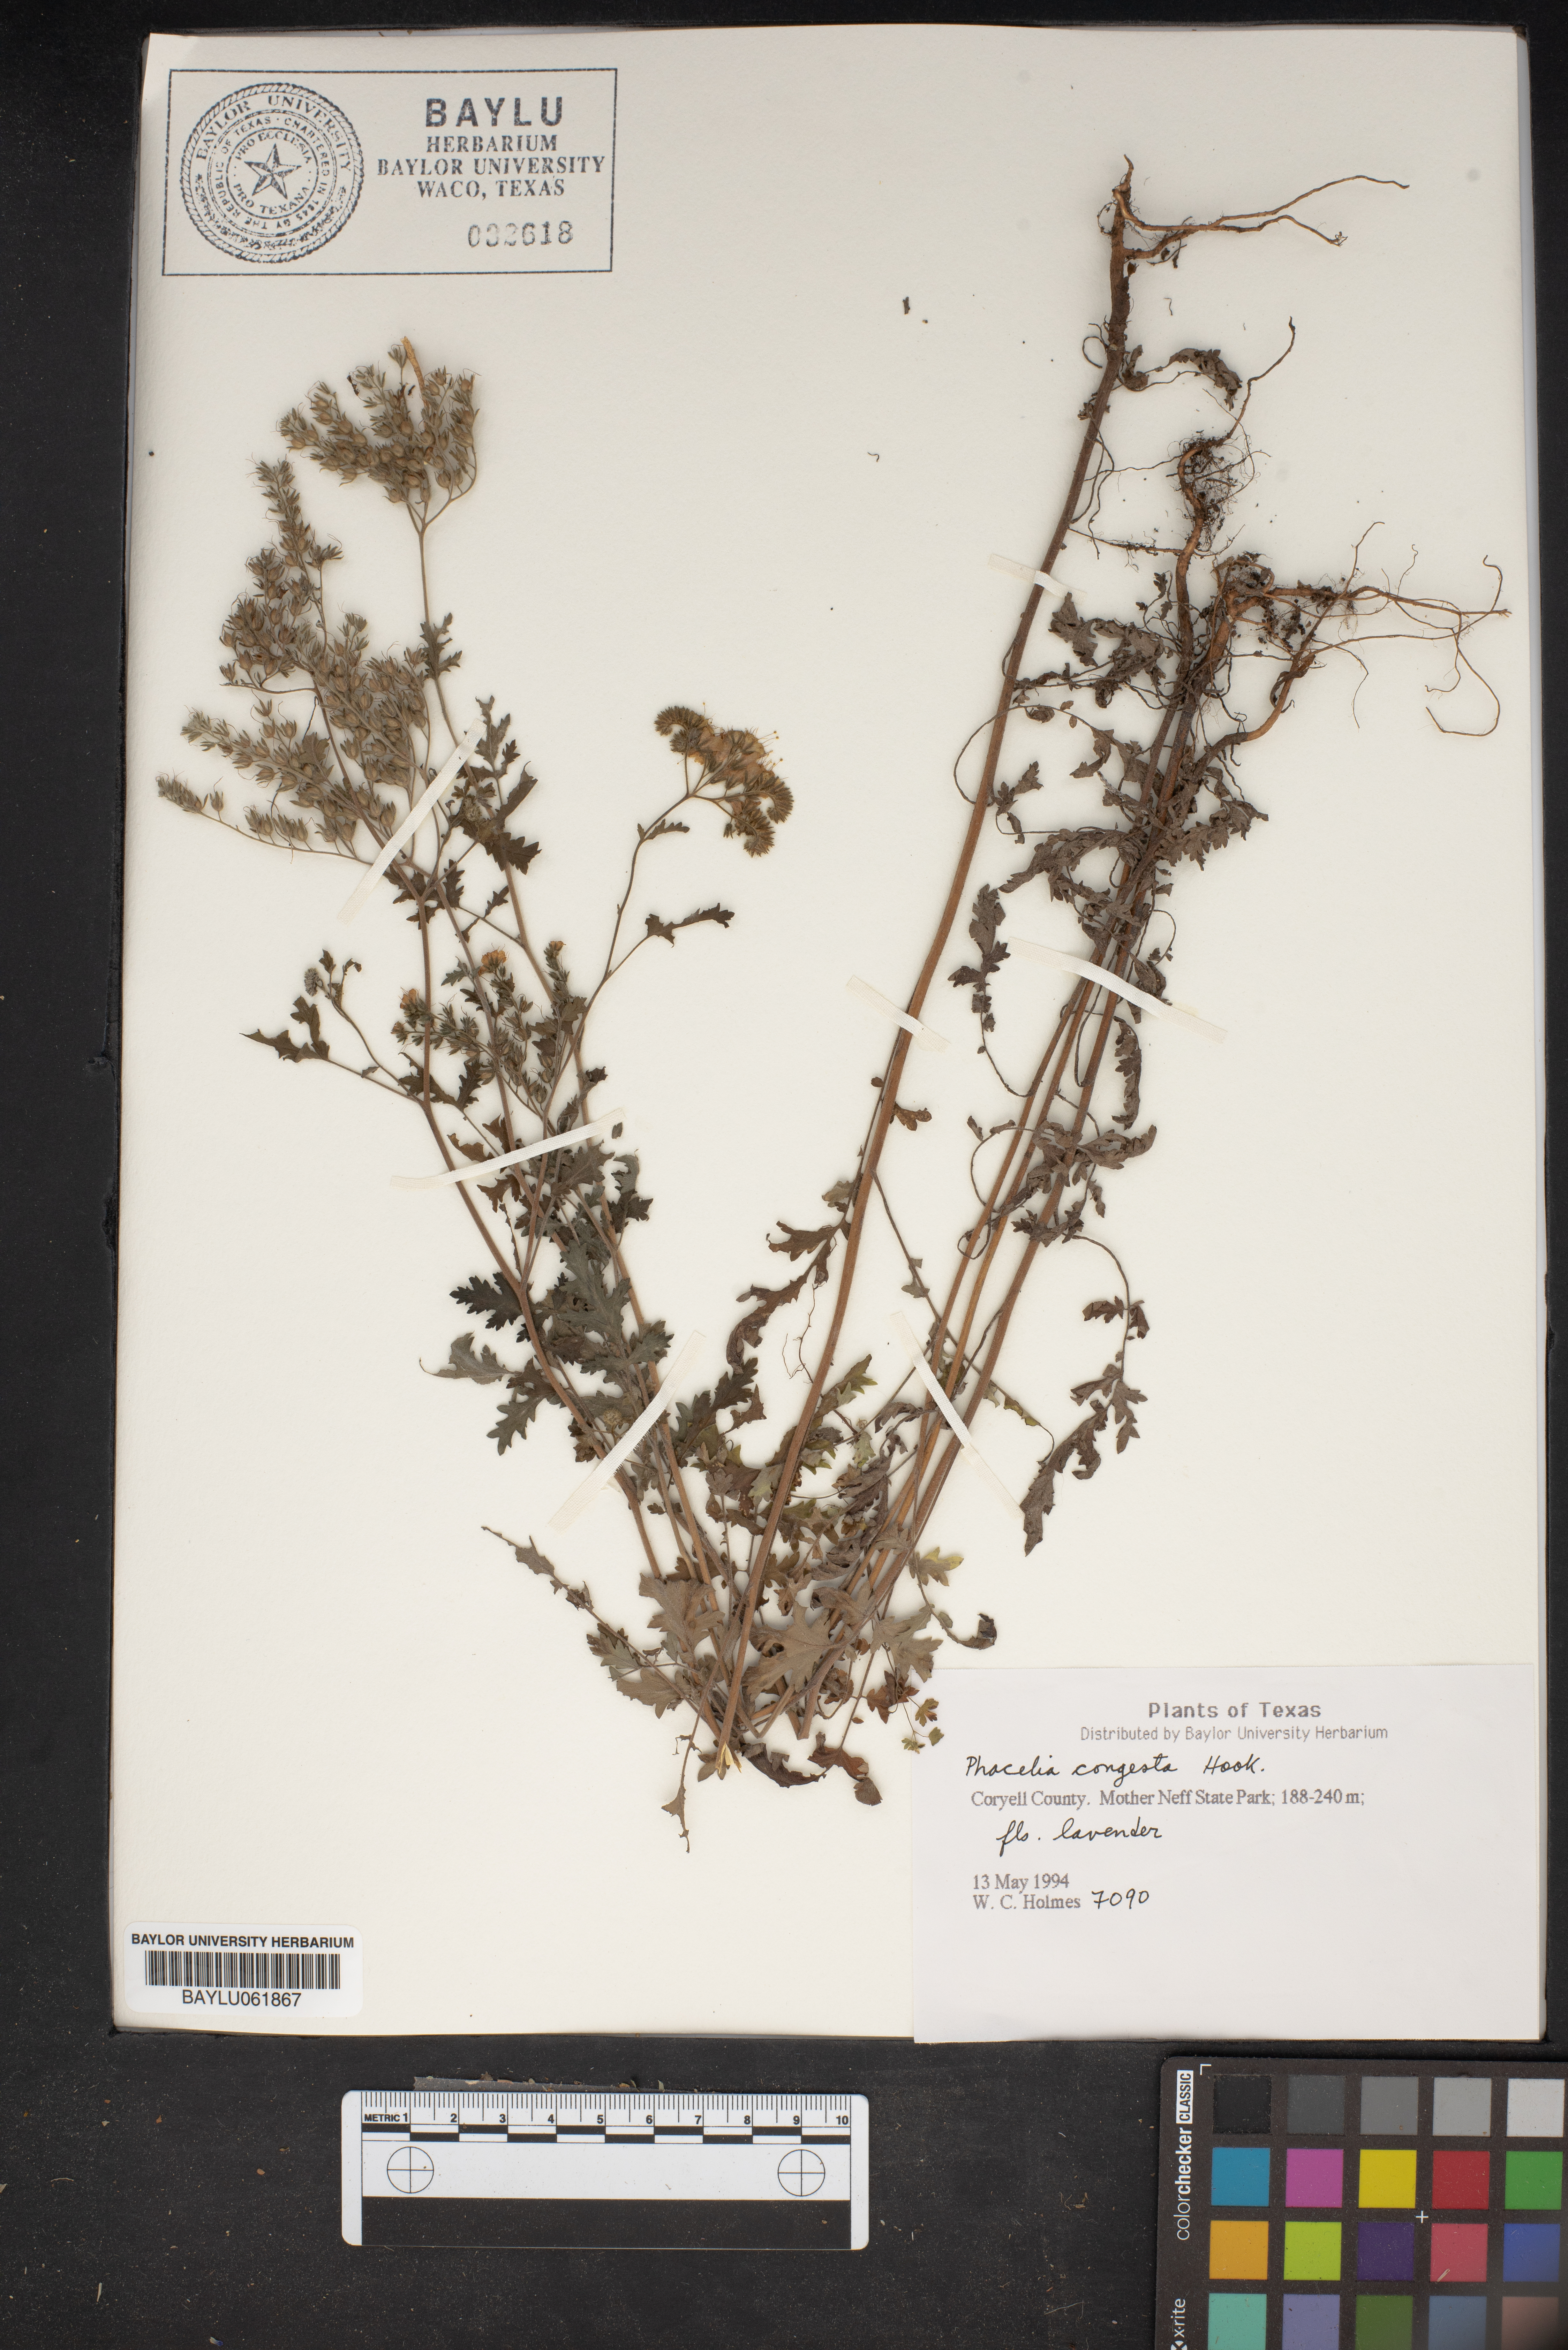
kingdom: Plantae
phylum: Tracheophyta
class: Magnoliopsida
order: Boraginales
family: Hydrophyllaceae
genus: Phacelia
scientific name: Phacelia congesta
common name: Blue curls
